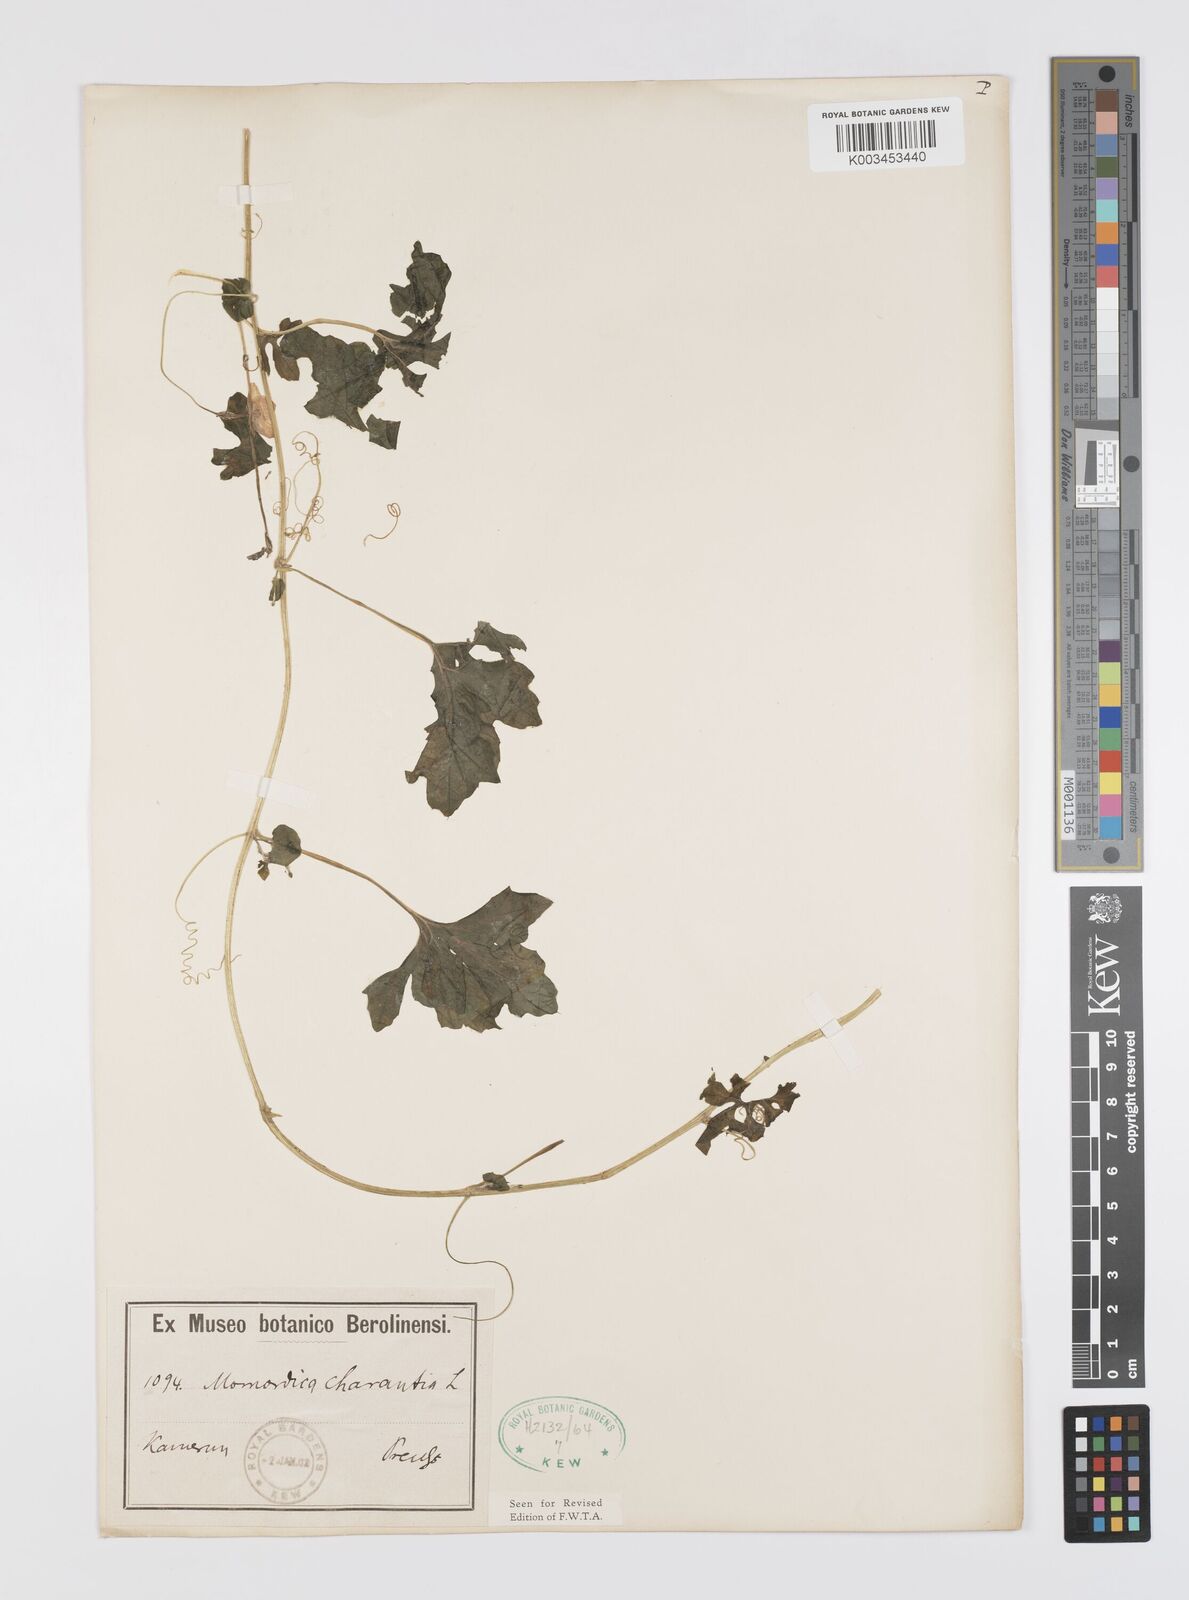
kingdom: Plantae
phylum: Tracheophyta
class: Magnoliopsida
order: Cucurbitales
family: Cucurbitaceae
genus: Momordica
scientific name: Momordica charantia
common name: Balsampear
